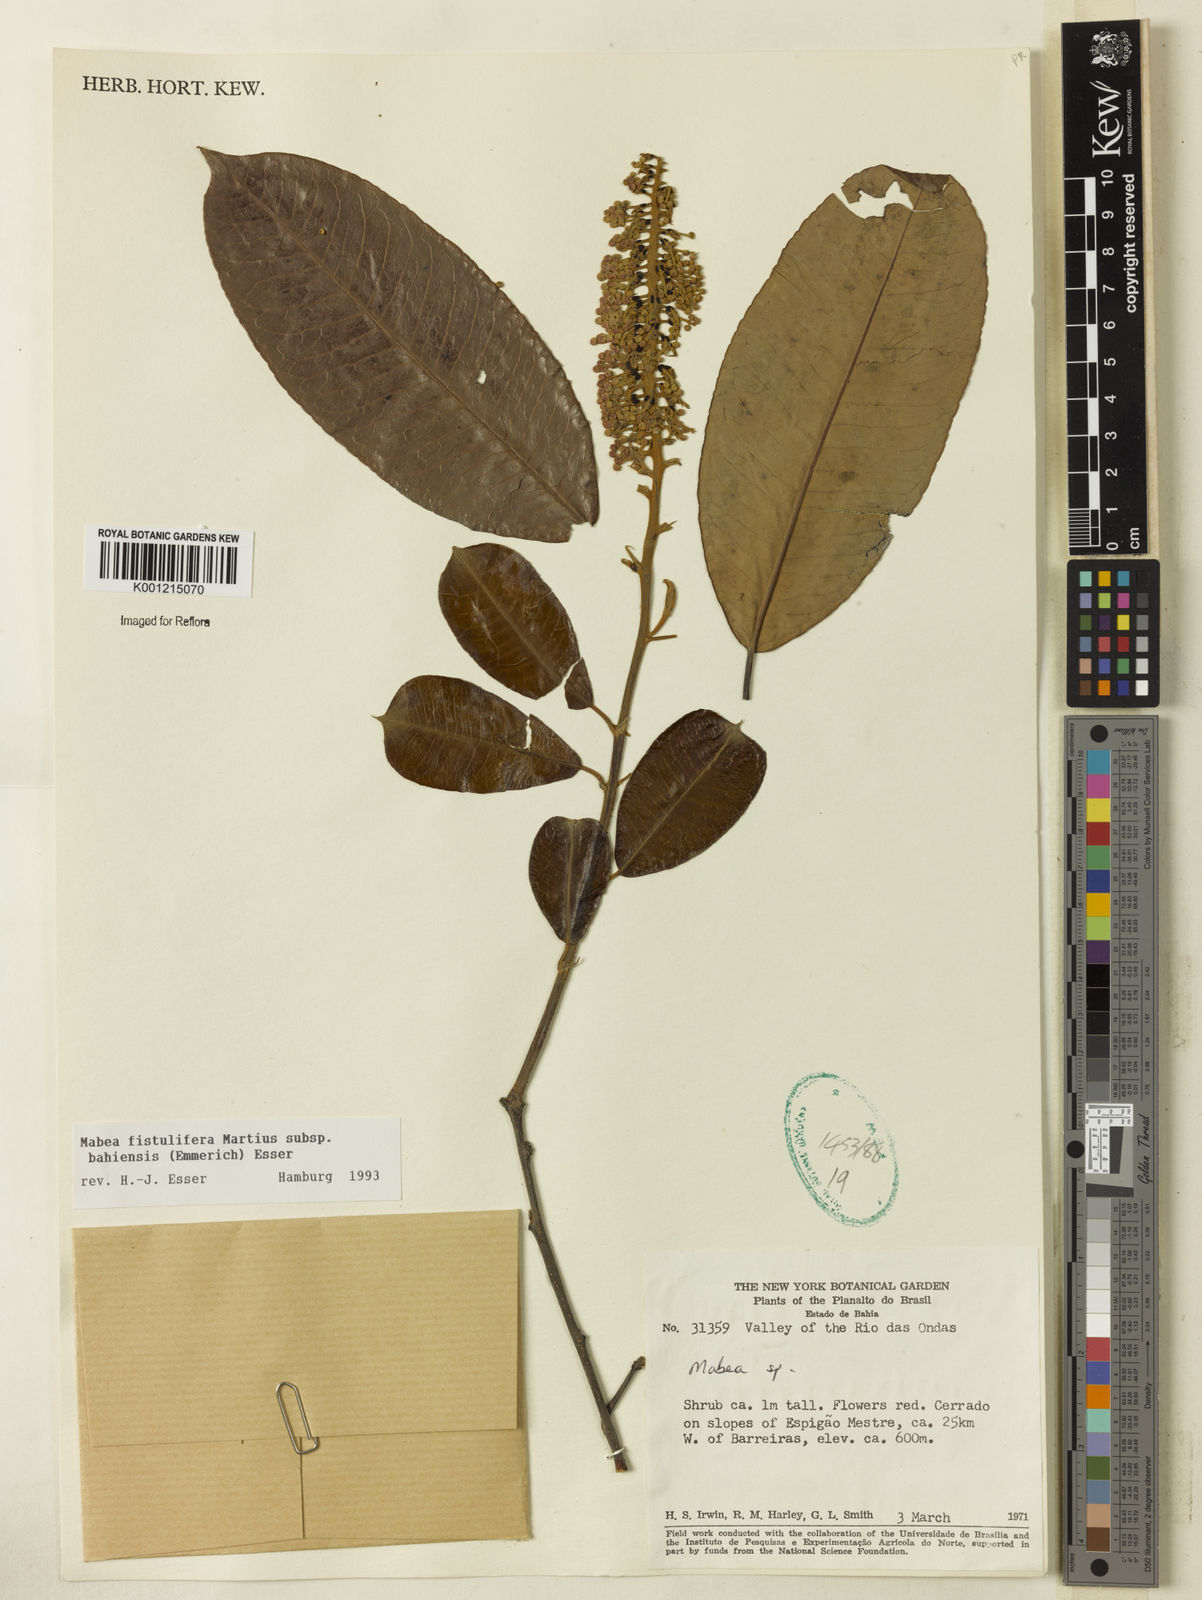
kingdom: Plantae
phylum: Tracheophyta
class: Magnoliopsida
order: Malpighiales
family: Euphorbiaceae
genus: Mabea
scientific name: Mabea fistulifera
